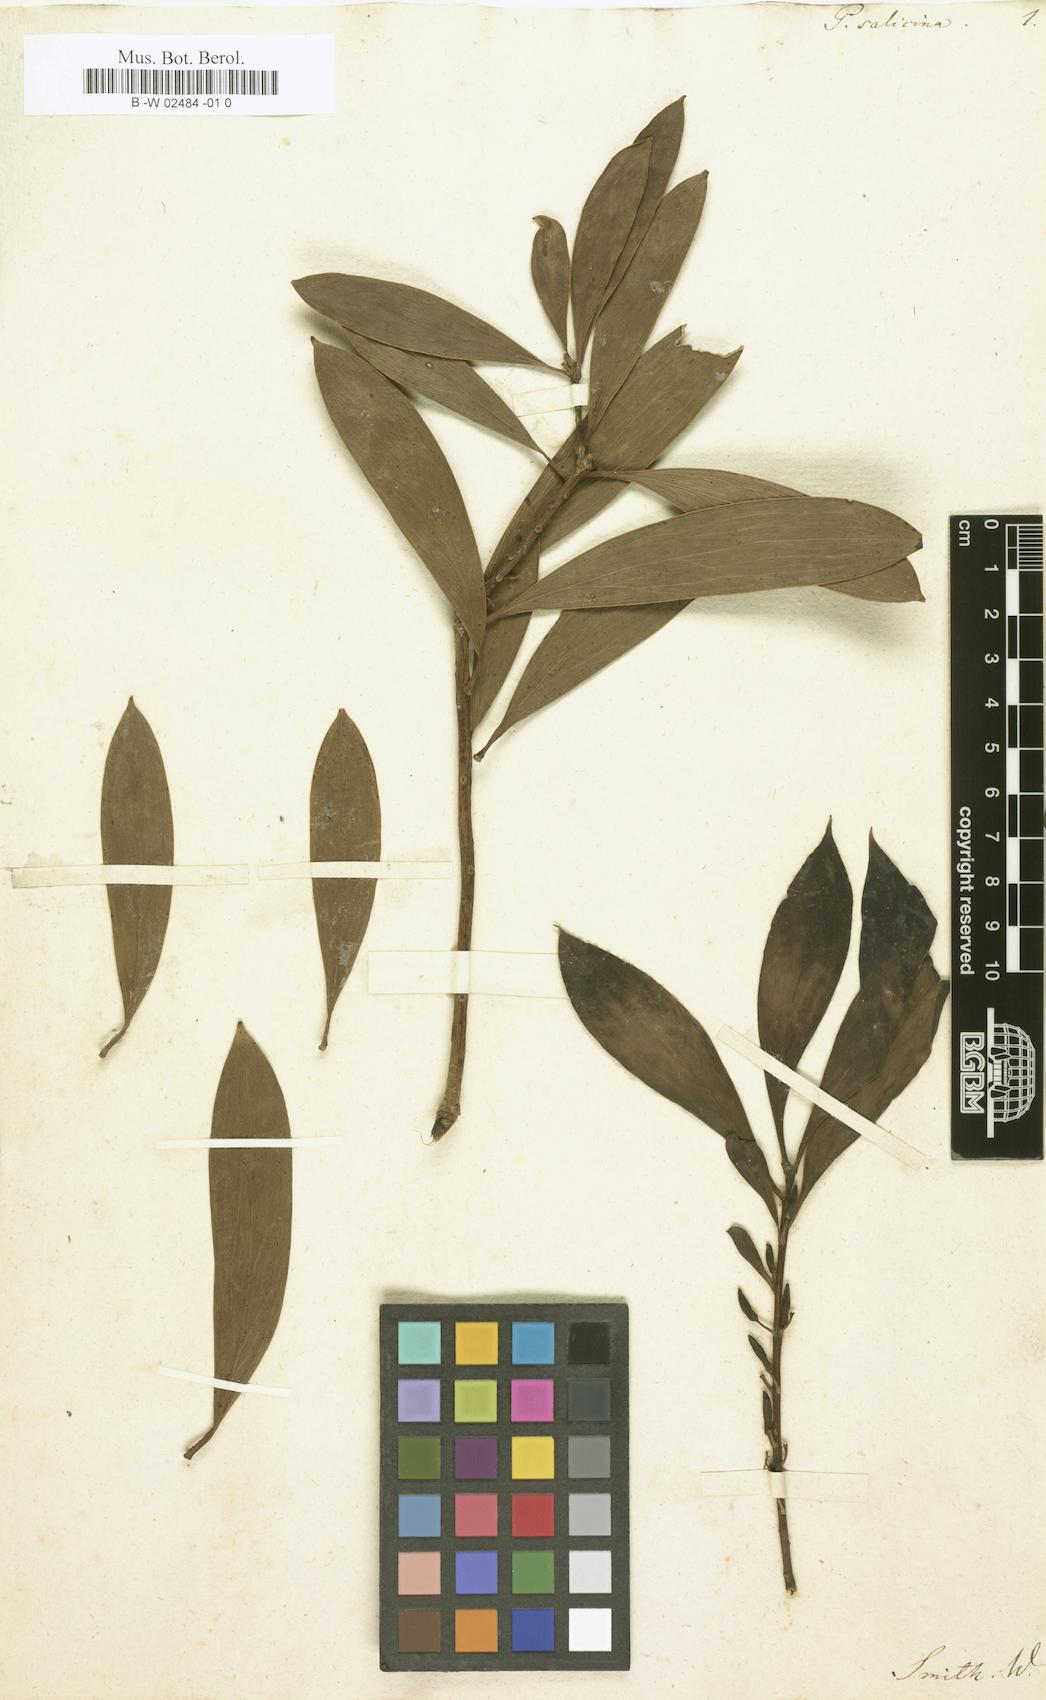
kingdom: Plantae
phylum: Tracheophyta
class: Magnoliopsida
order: Proteales
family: Proteaceae
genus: Persoonia
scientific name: Persoonia levis
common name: Smooth geebung
